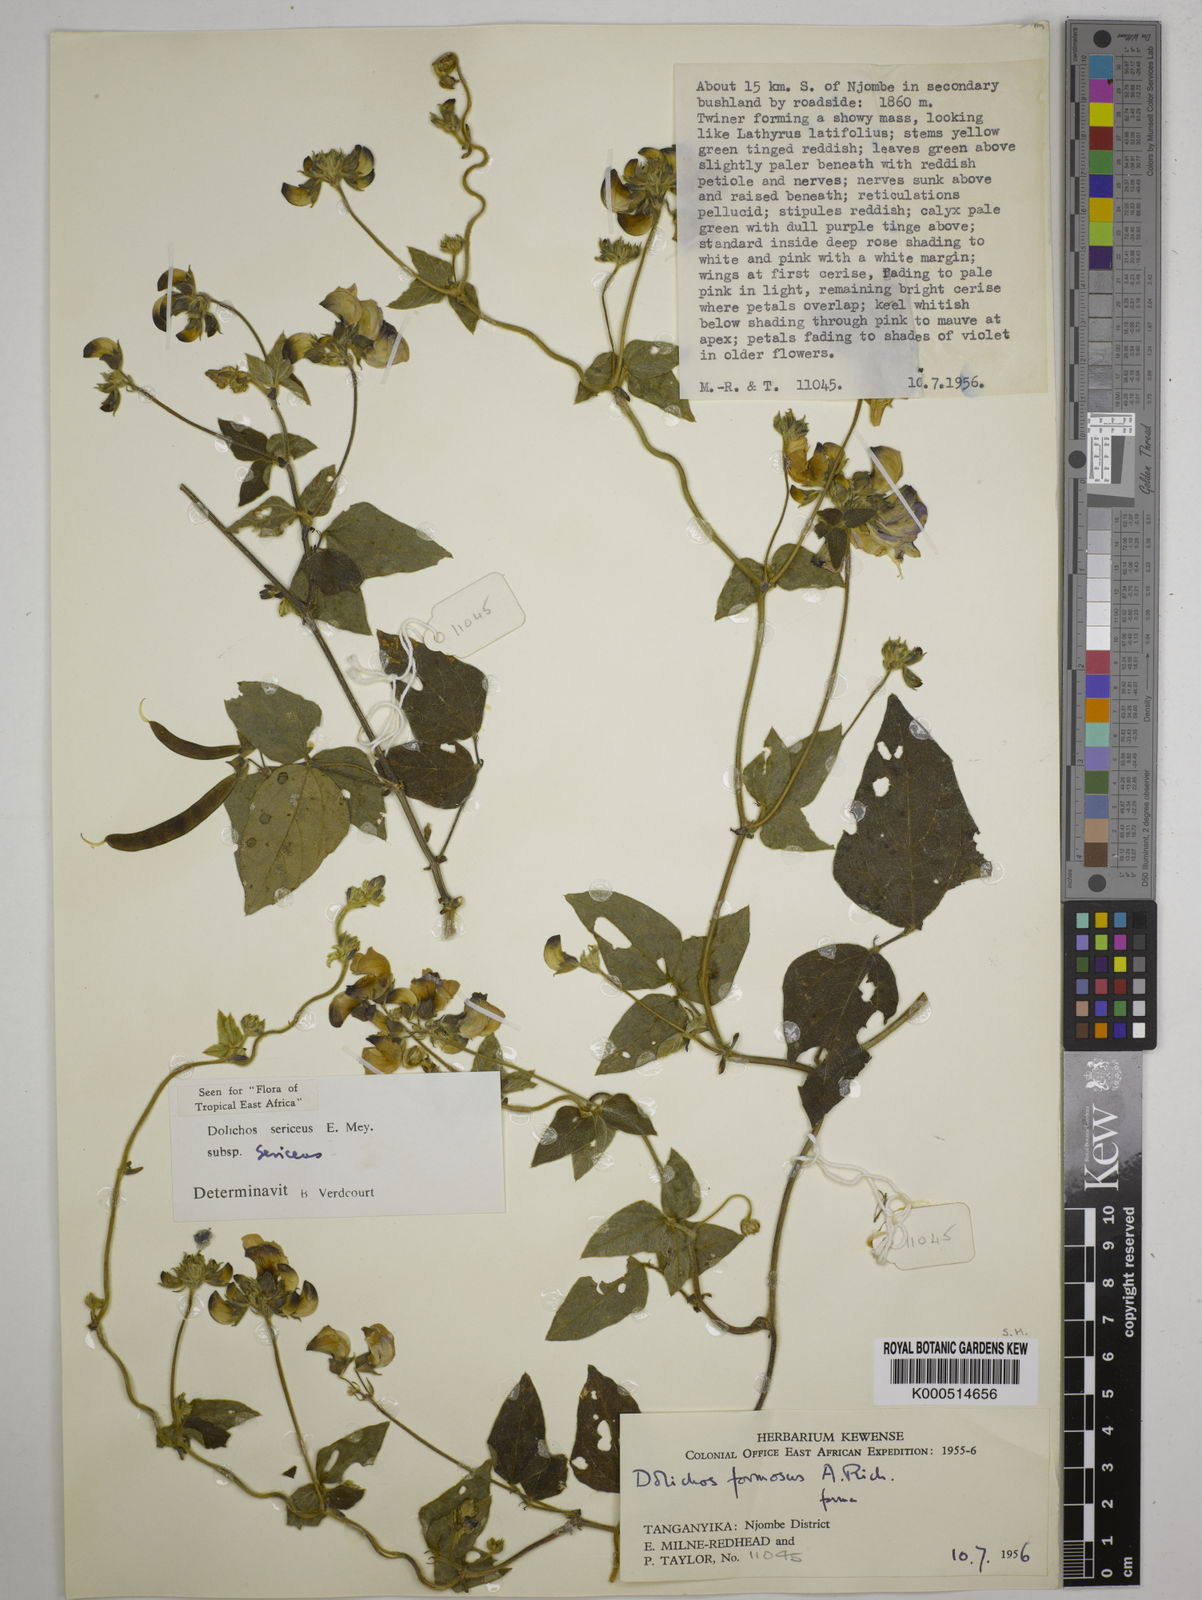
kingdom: Plantae
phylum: Tracheophyta
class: Magnoliopsida
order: Fabales
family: Fabaceae
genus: Dolichos
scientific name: Dolichos sericeus
